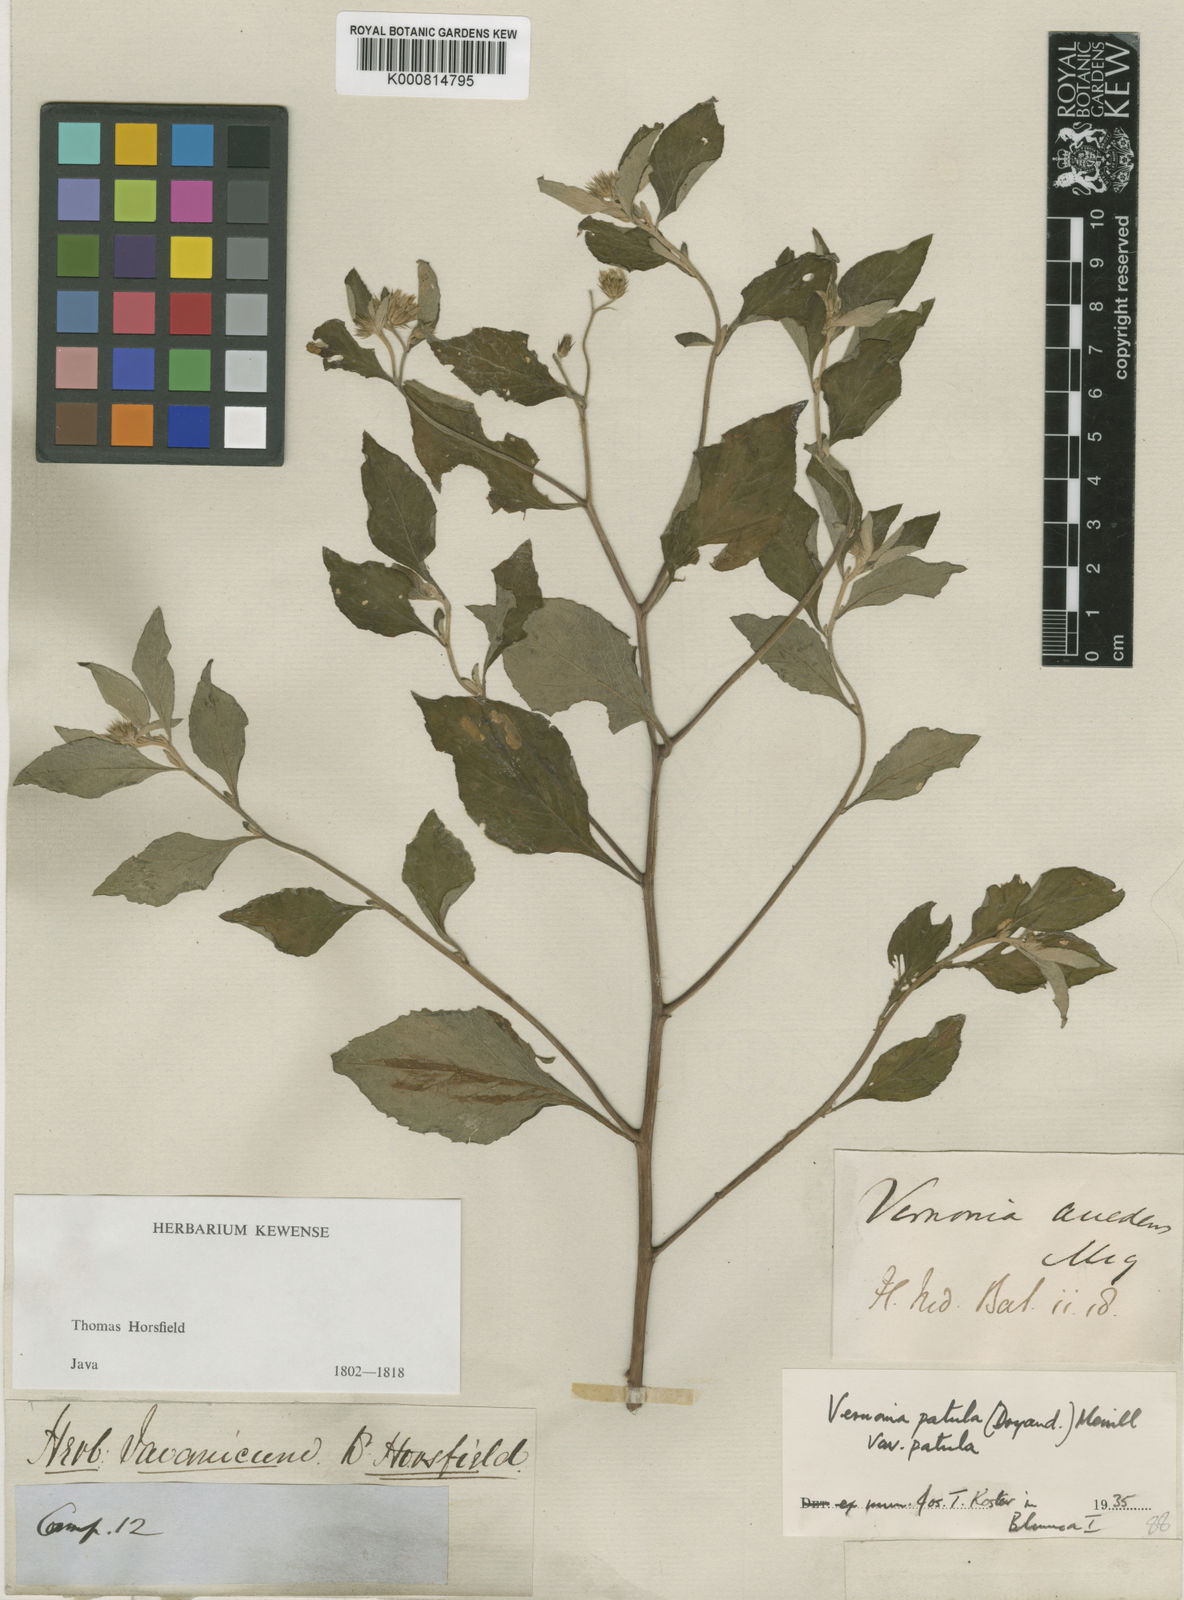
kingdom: Plantae
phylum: Tracheophyta
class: Magnoliopsida
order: Asterales
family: Asteraceae
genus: Cyanthillium
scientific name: Cyanthillium patulum
